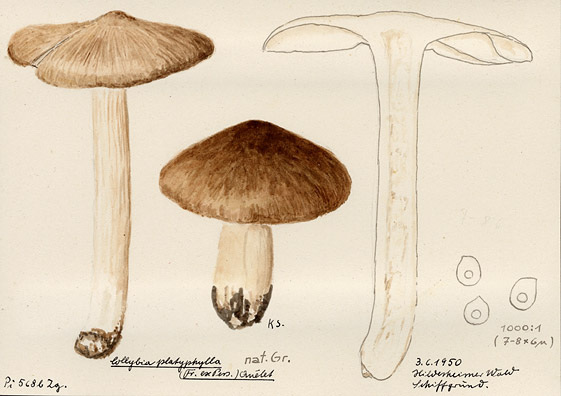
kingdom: Fungi
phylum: Basidiomycota
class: Agaricomycetes
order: Agaricales
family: Tricholomataceae
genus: Megacollybia
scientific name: Megacollybia platyphylla
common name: Whitelaced shank
